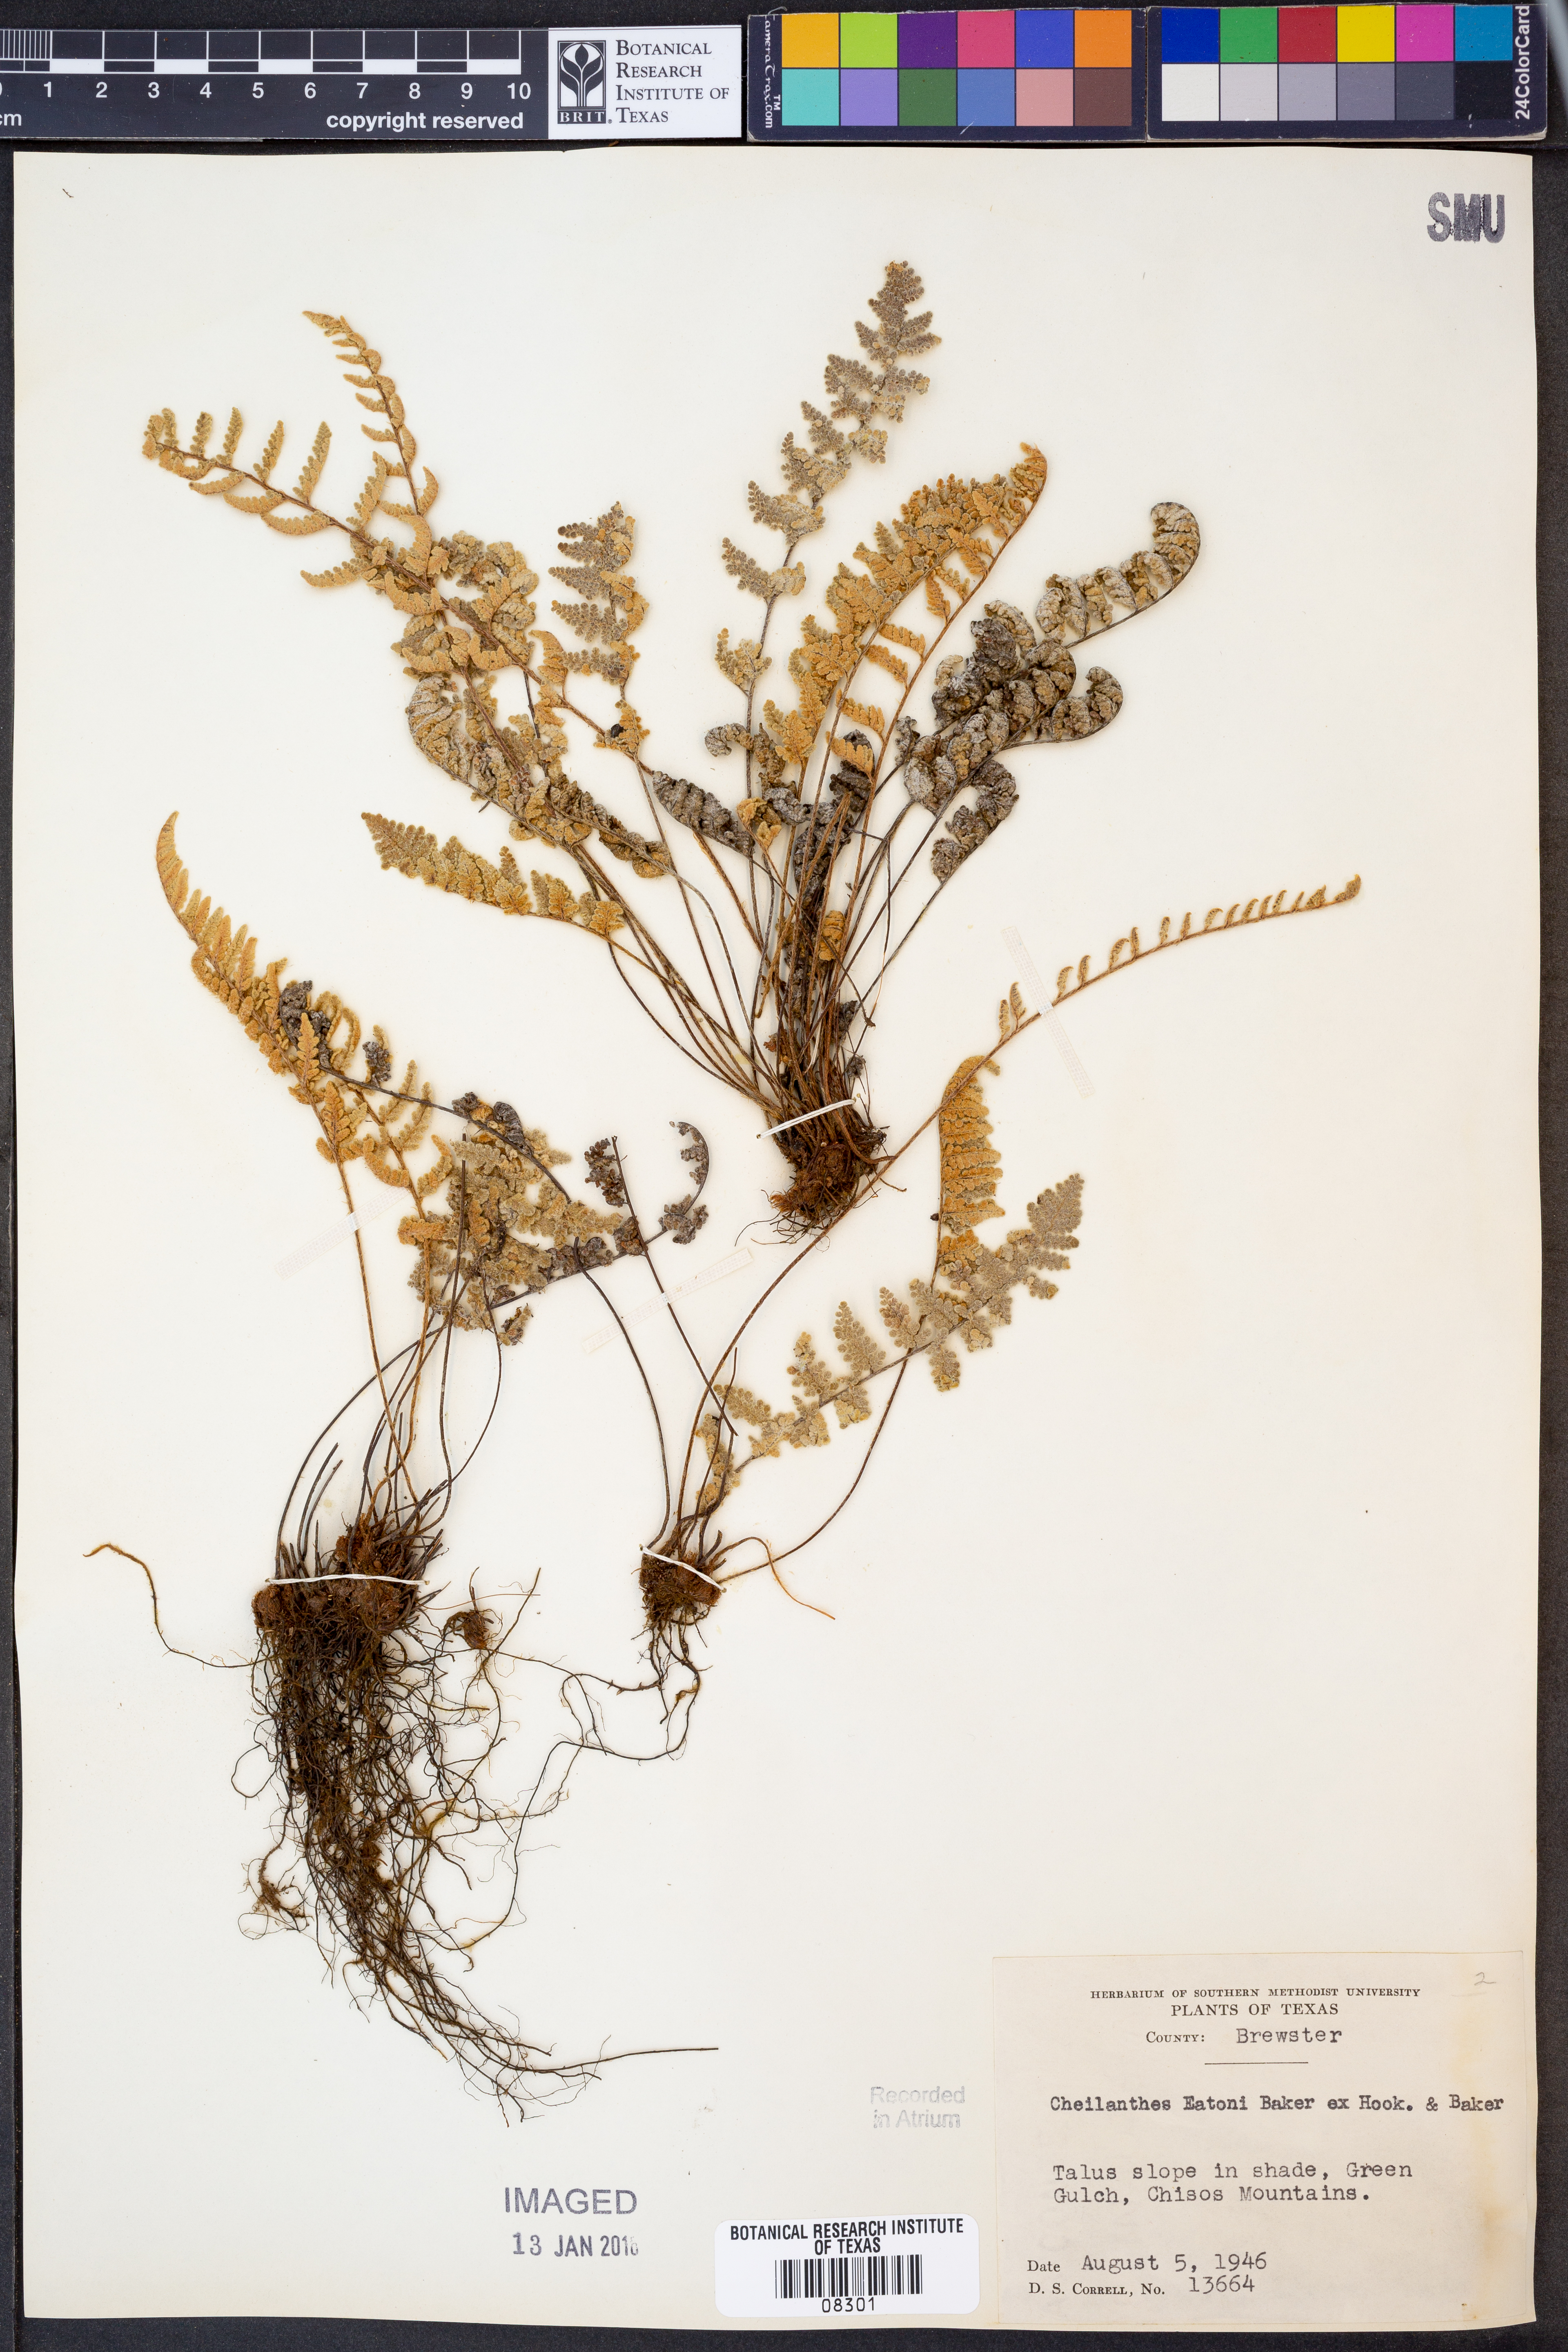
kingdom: Plantae
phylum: Tracheophyta
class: Polypodiopsida
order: Polypodiales
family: Pteridaceae
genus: Myriopteris
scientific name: Myriopteris rufa
